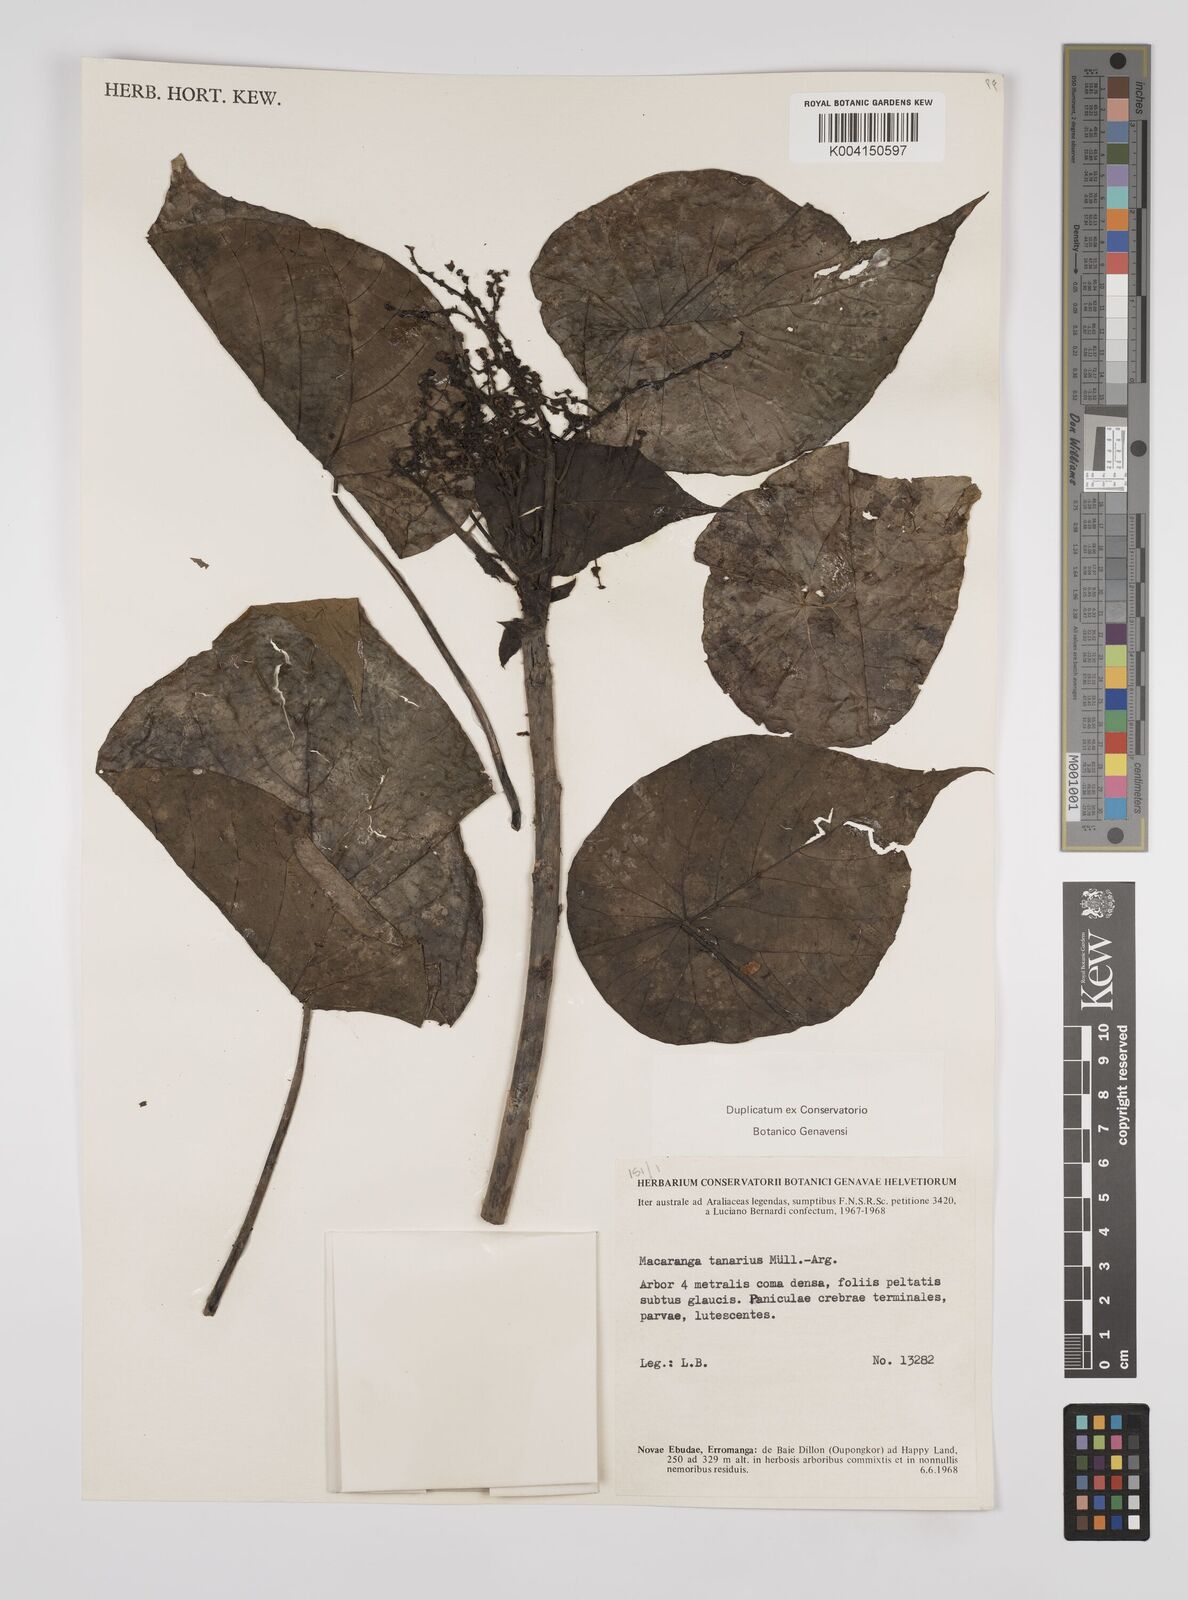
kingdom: Plantae
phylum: Tracheophyta
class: Magnoliopsida
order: Malpighiales
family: Euphorbiaceae
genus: Macaranga
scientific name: Macaranga tanarius
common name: Parasol leaf tree
